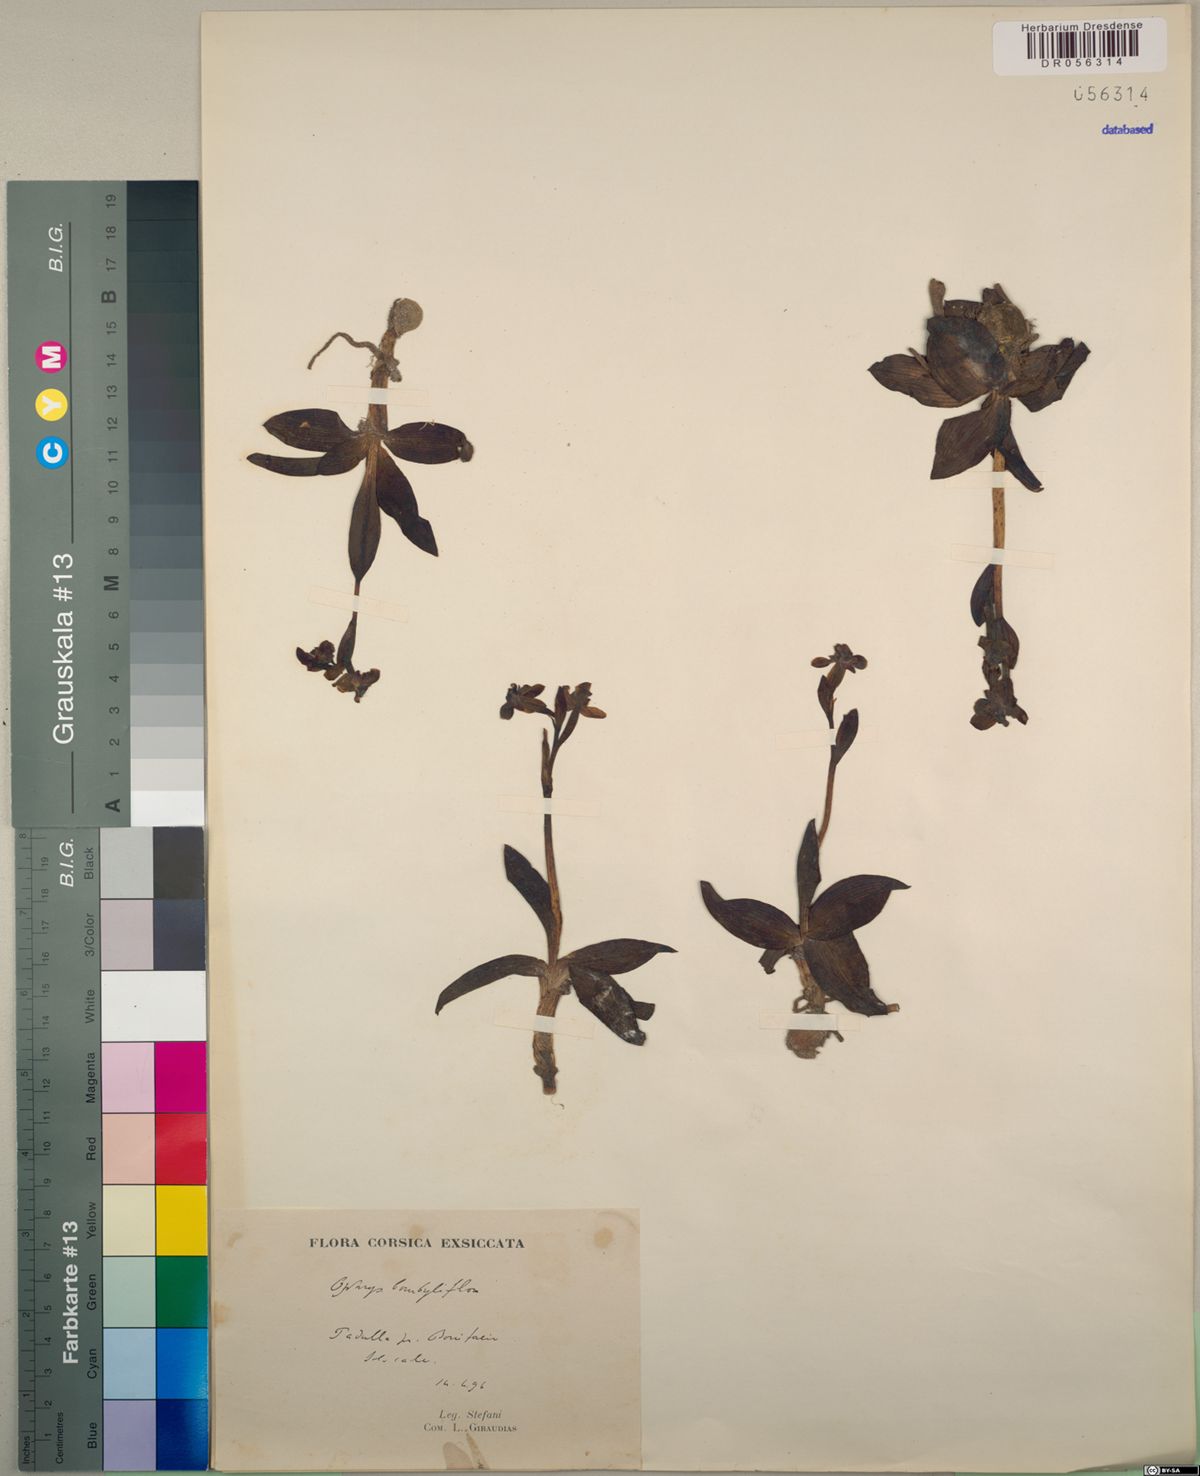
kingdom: Plantae
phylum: Tracheophyta
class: Liliopsida
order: Asparagales
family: Orchidaceae
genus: Ophrys
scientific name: Ophrys bombyliflora
